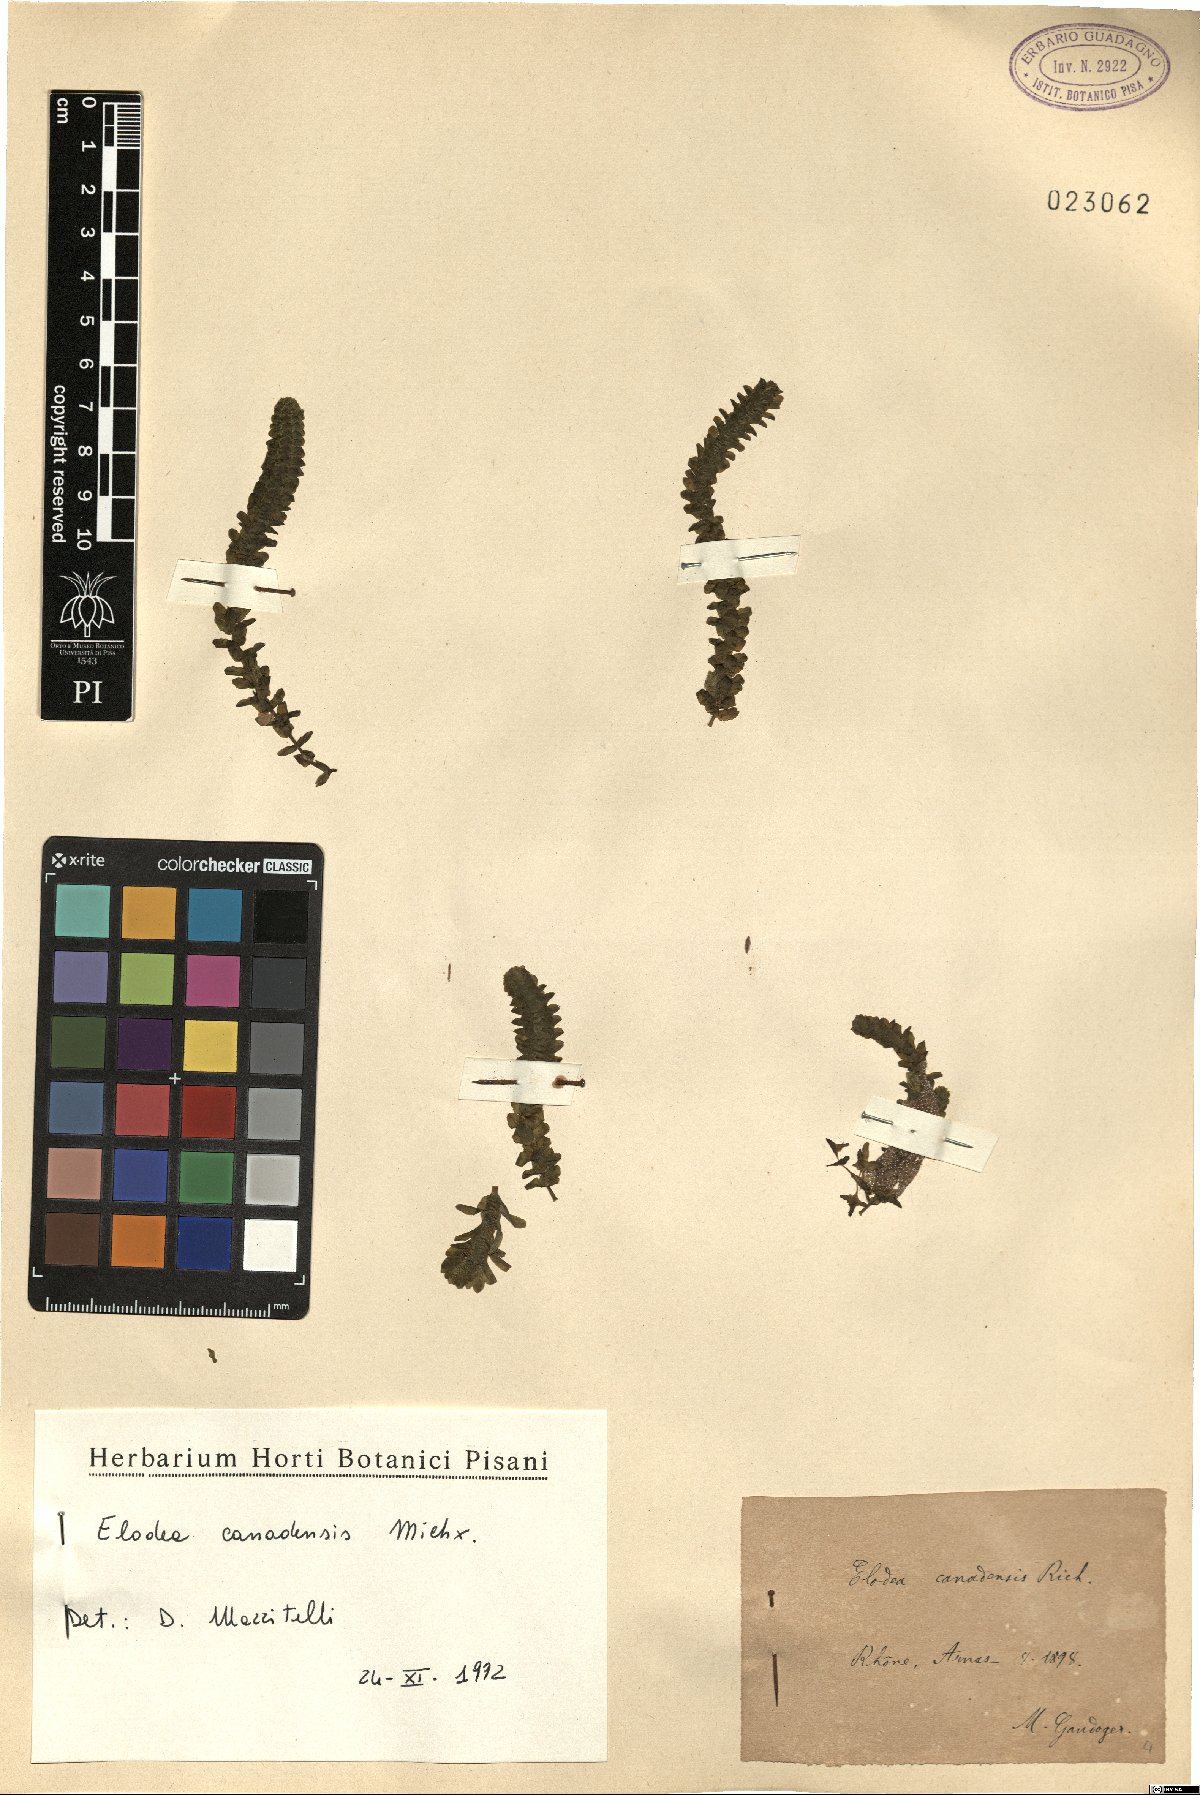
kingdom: Plantae
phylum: Tracheophyta
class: Liliopsida
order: Alismatales
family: Hydrocharitaceae
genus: Elodea
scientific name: Elodea canadensis
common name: Canadian waterweed
